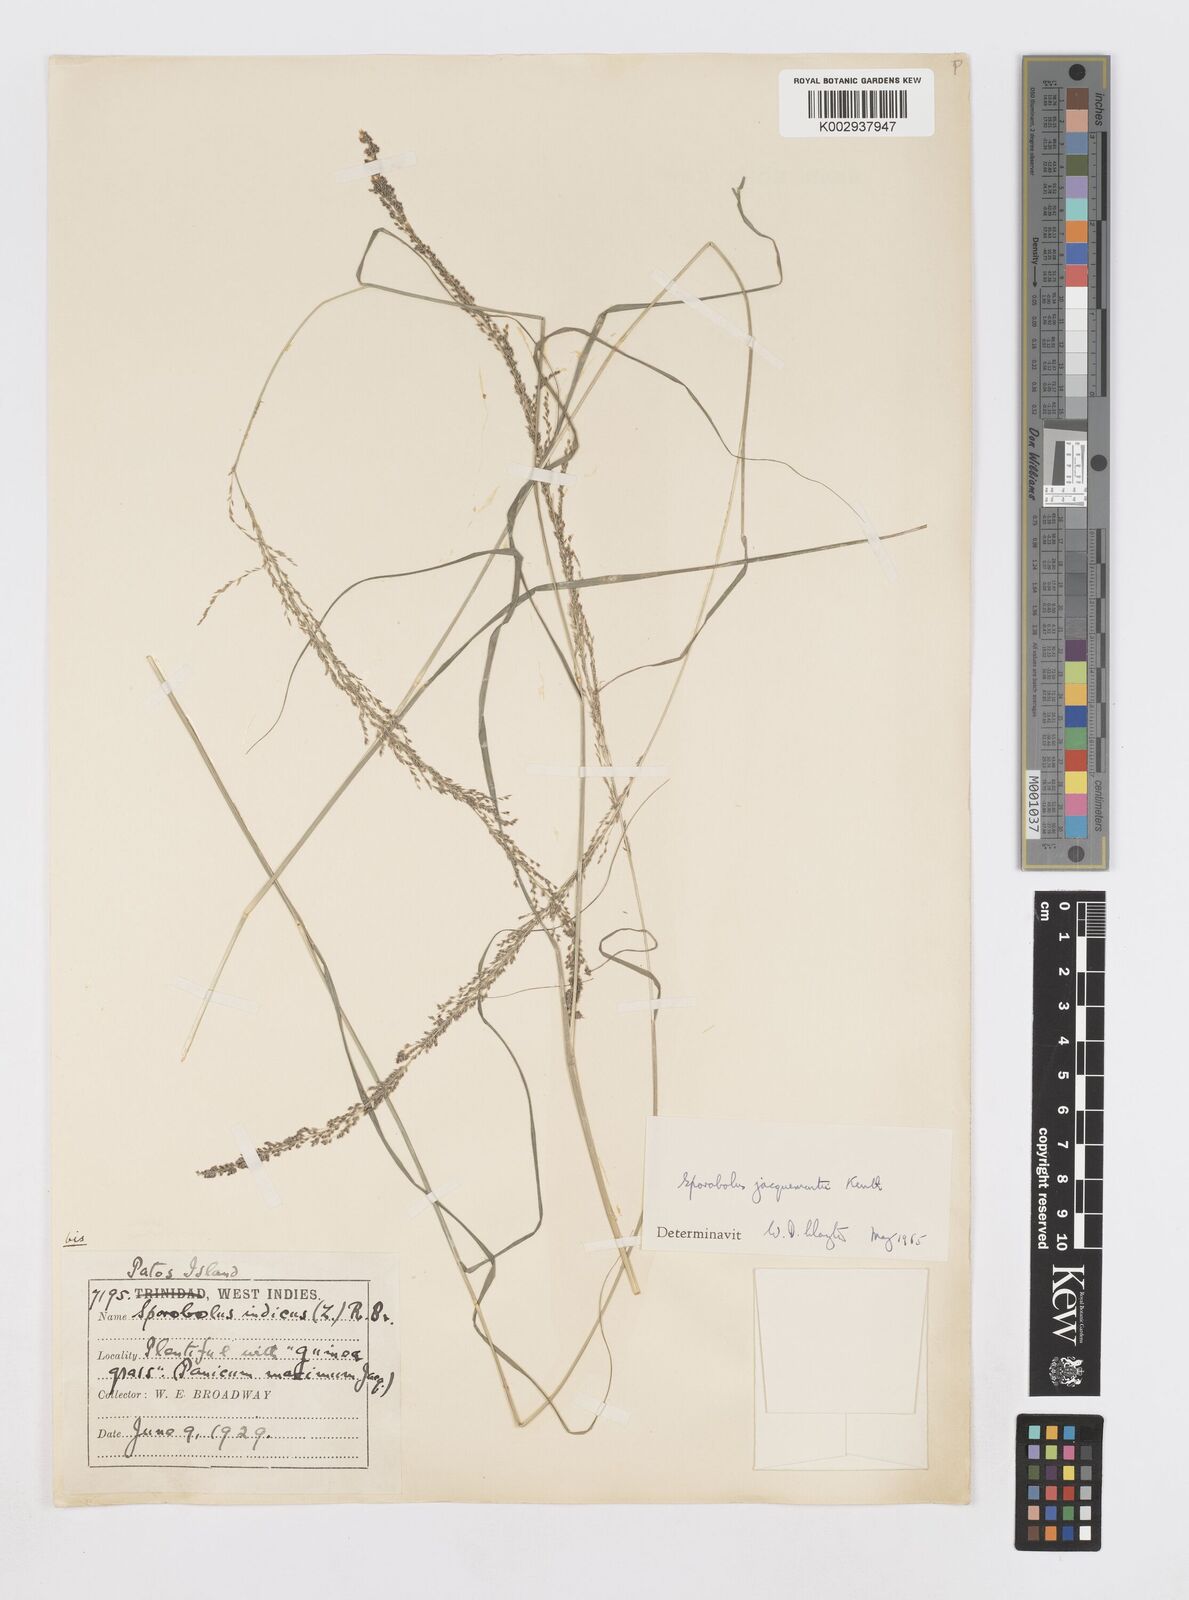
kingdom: Plantae
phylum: Tracheophyta
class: Liliopsida
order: Poales
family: Poaceae
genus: Sporobolus
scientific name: Sporobolus pyramidalis
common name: West indian dropseed
